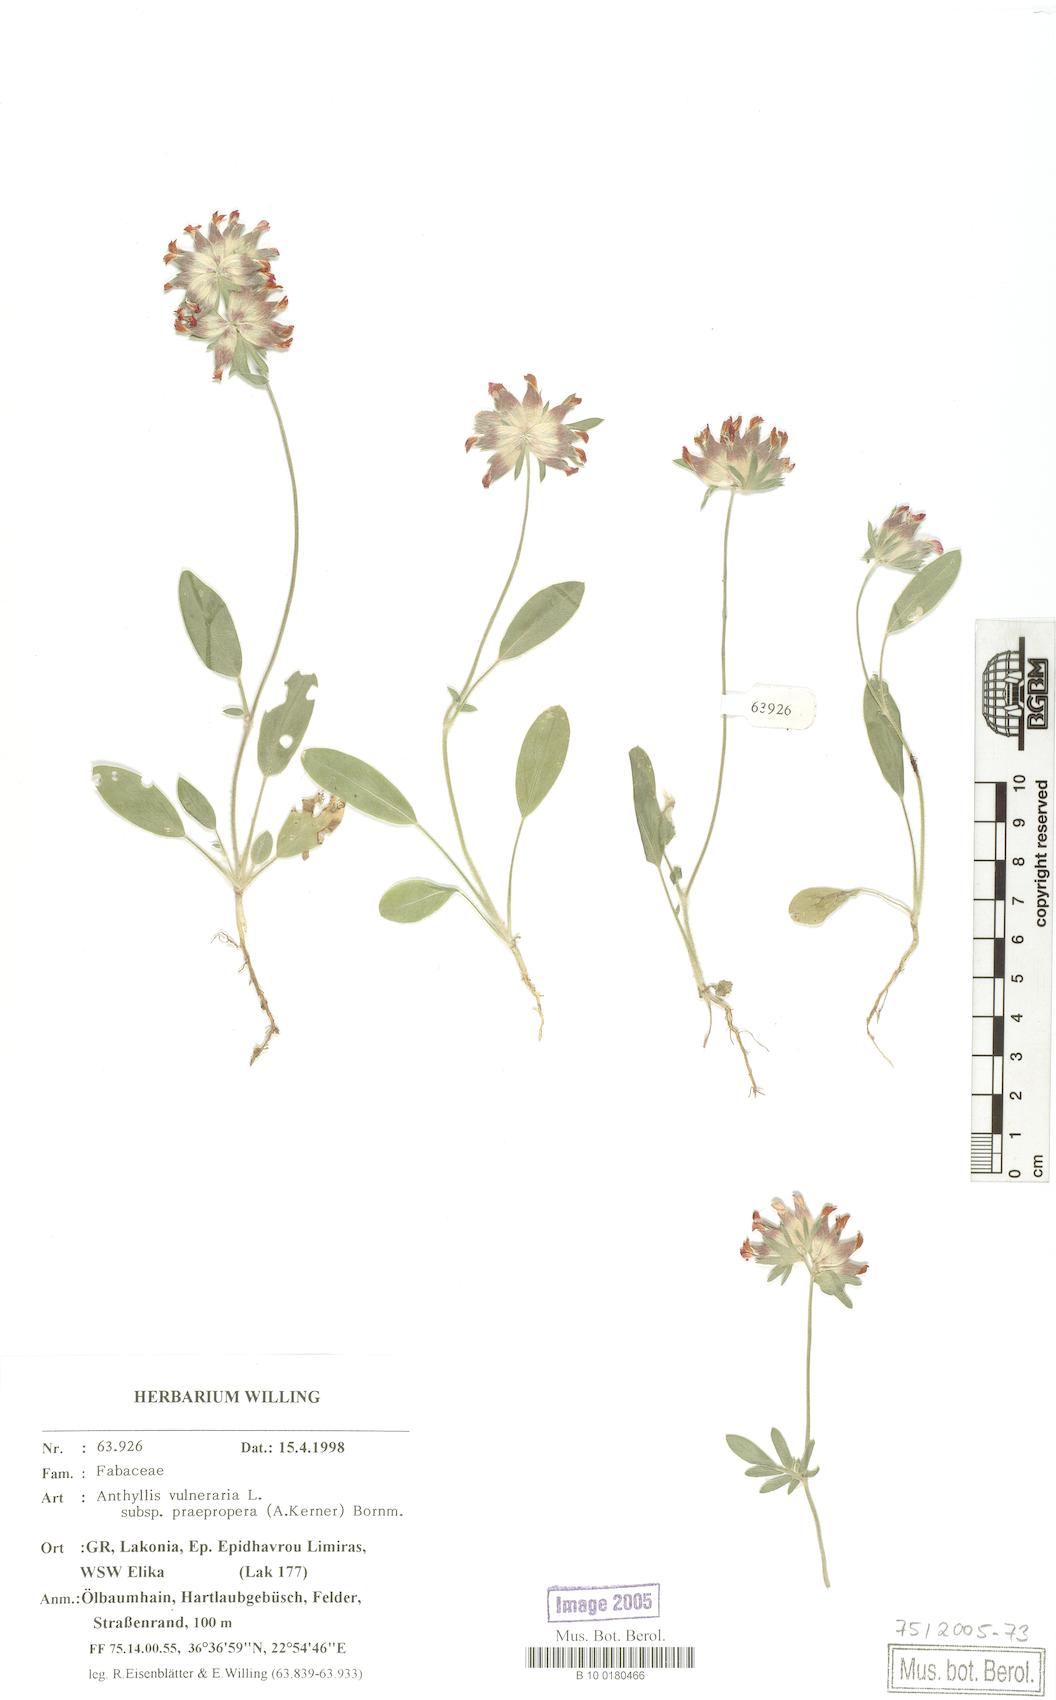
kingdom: Plantae
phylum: Tracheophyta
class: Magnoliopsida
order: Fabales
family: Fabaceae
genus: Anthyllis
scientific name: Anthyllis vulneraria
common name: Kidney vetch
